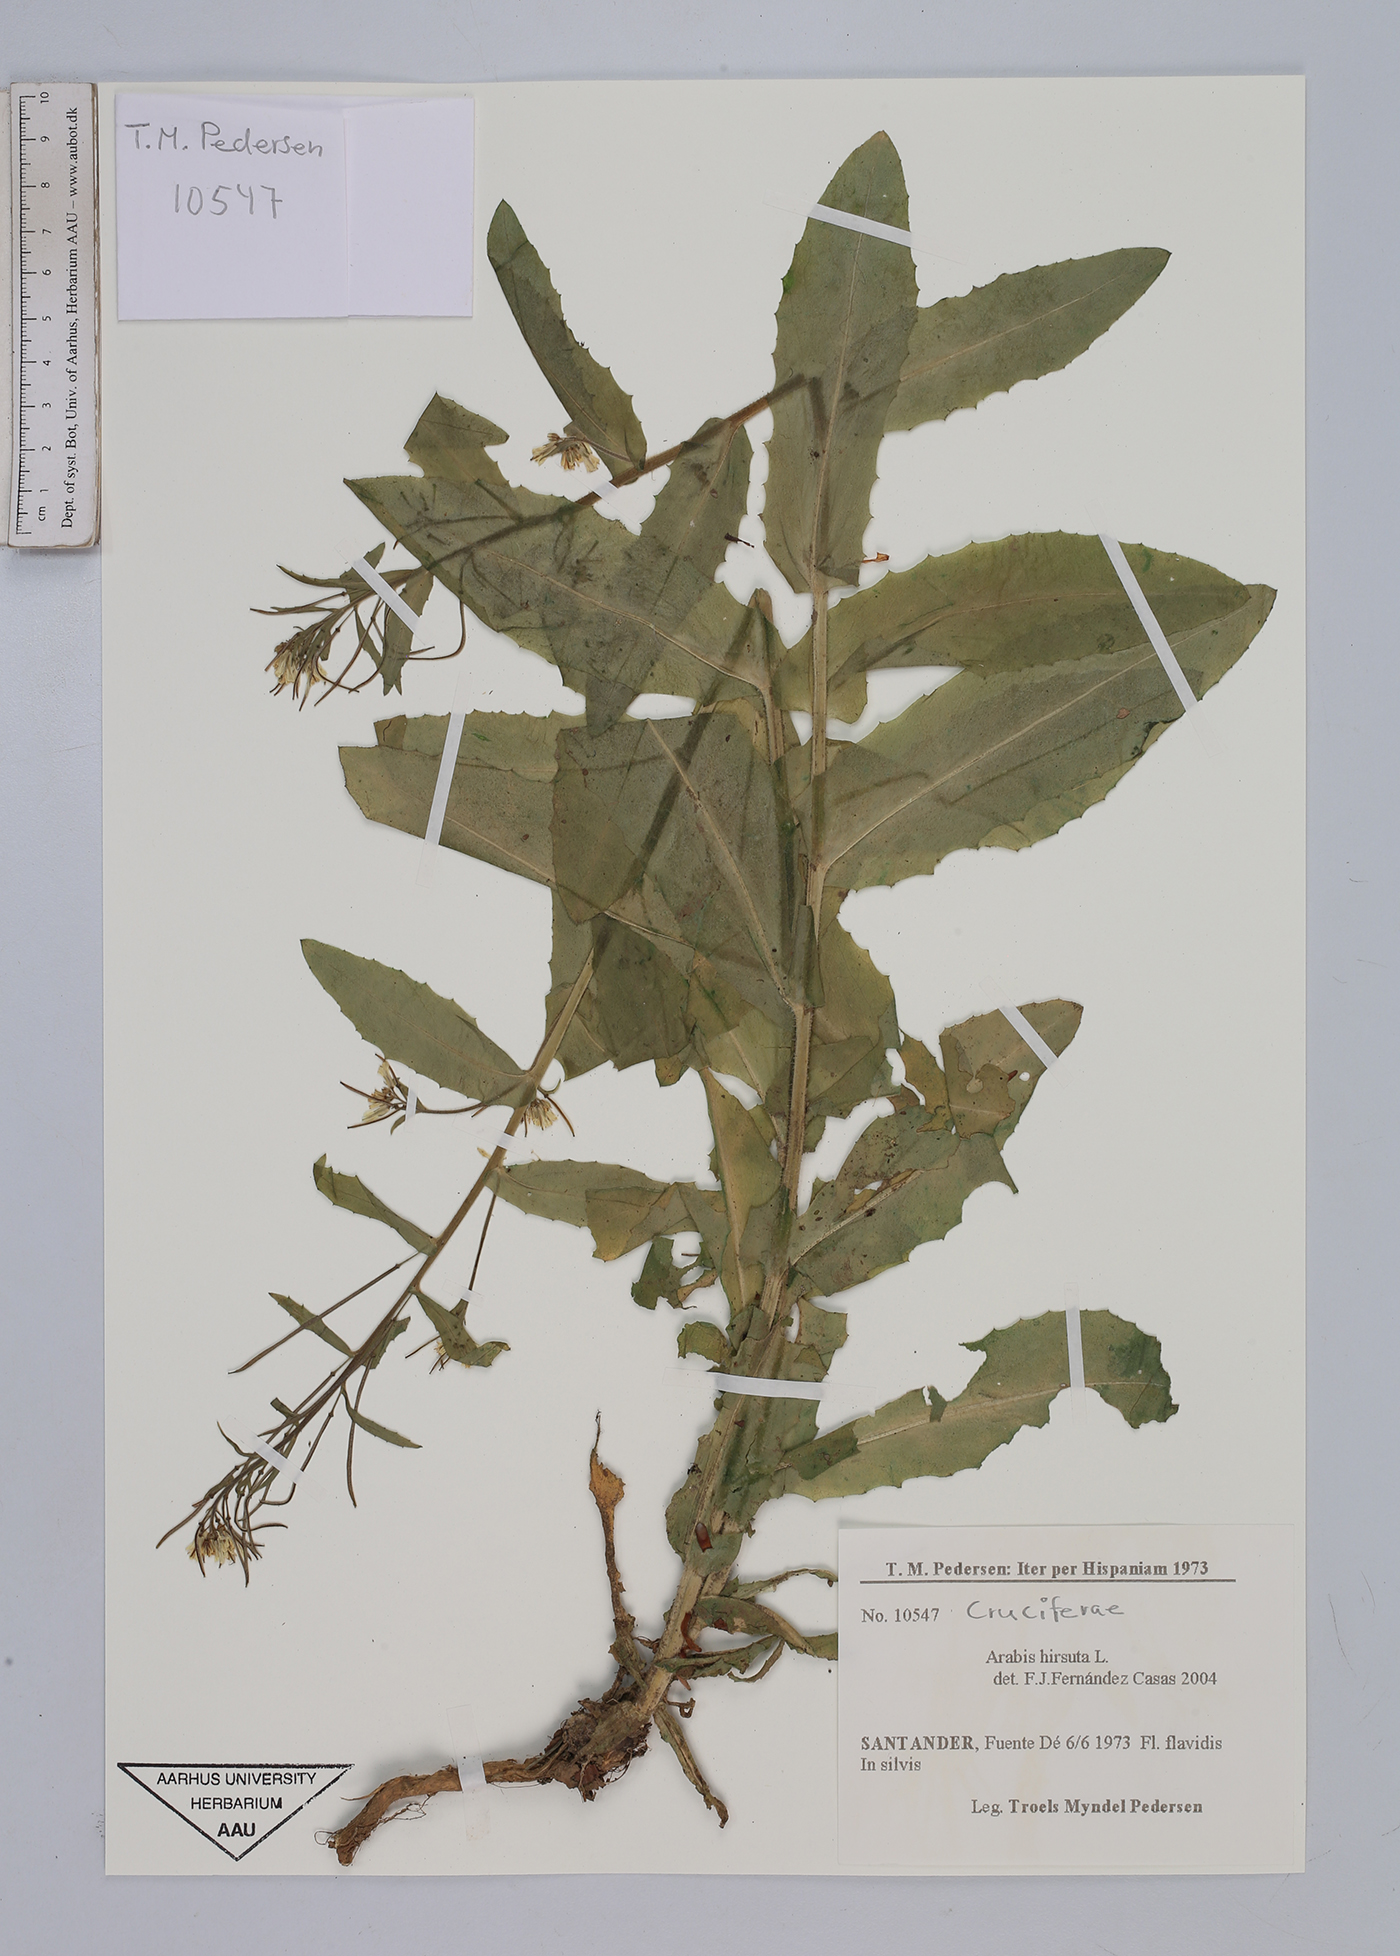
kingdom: Plantae
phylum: Tracheophyta
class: Magnoliopsida
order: Brassicales
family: Brassicaceae
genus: Arabis
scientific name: Arabis hirsuta
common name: Hairy rock-cress
